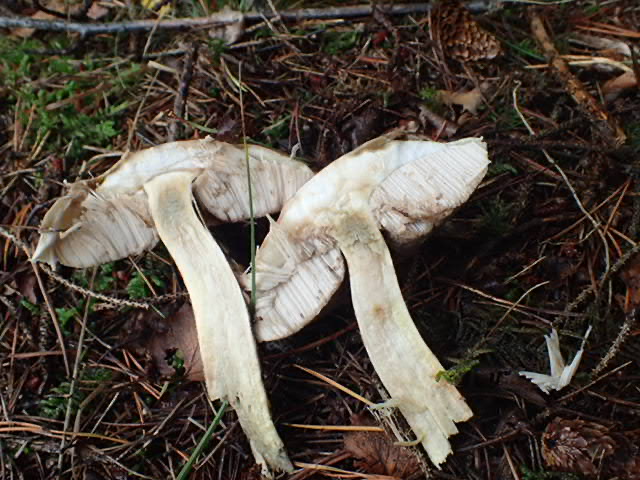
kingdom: Fungi
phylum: Basidiomycota
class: Agaricomycetes
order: Boletales
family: Boletaceae
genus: Leccinum
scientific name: Leccinum
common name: skælrørhat
